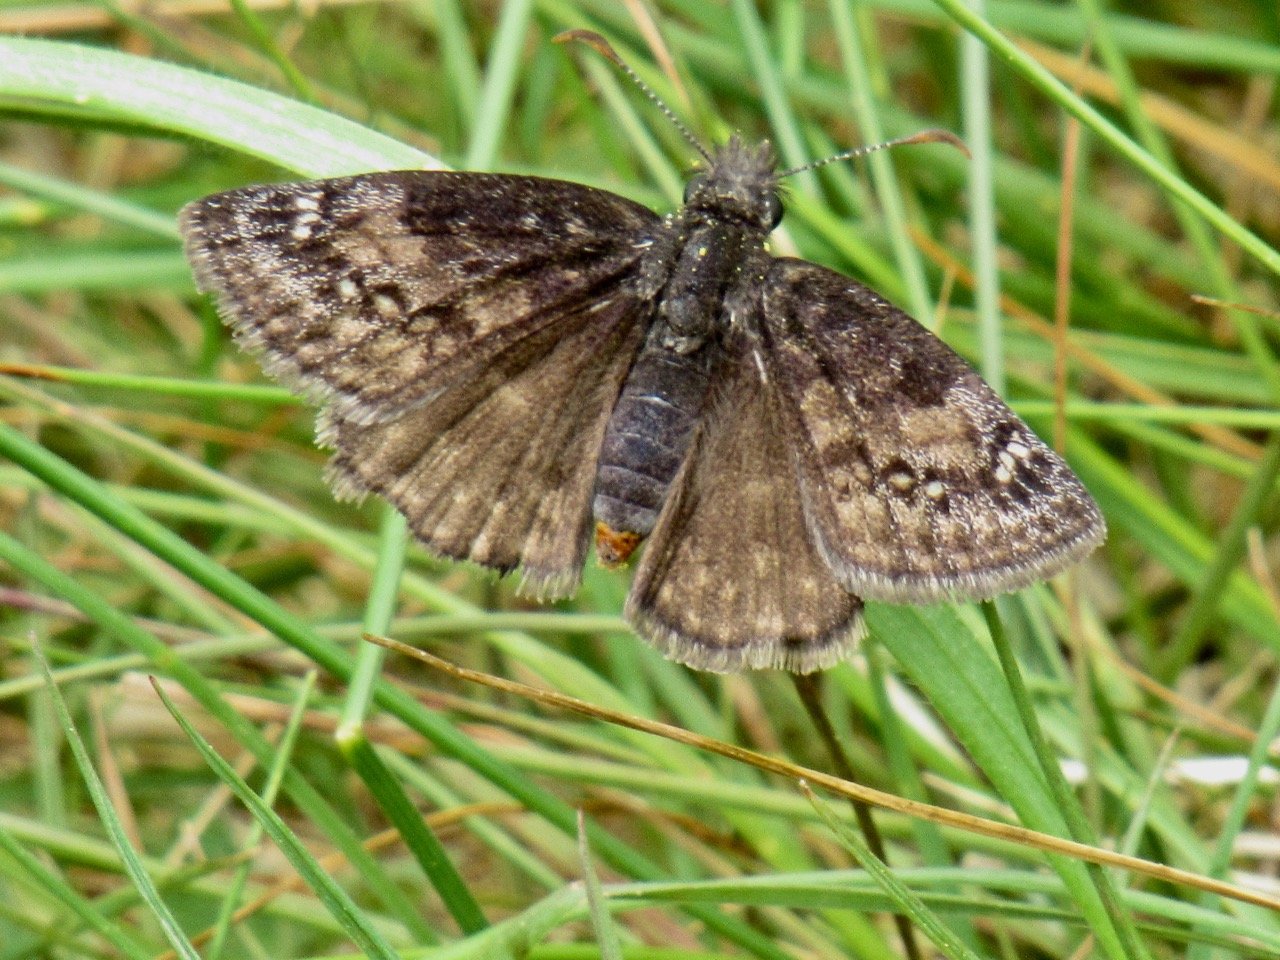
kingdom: Animalia
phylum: Arthropoda
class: Insecta
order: Lepidoptera
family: Hesperiidae
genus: Gesta
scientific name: Gesta
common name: Wild Indigo Duskywing
